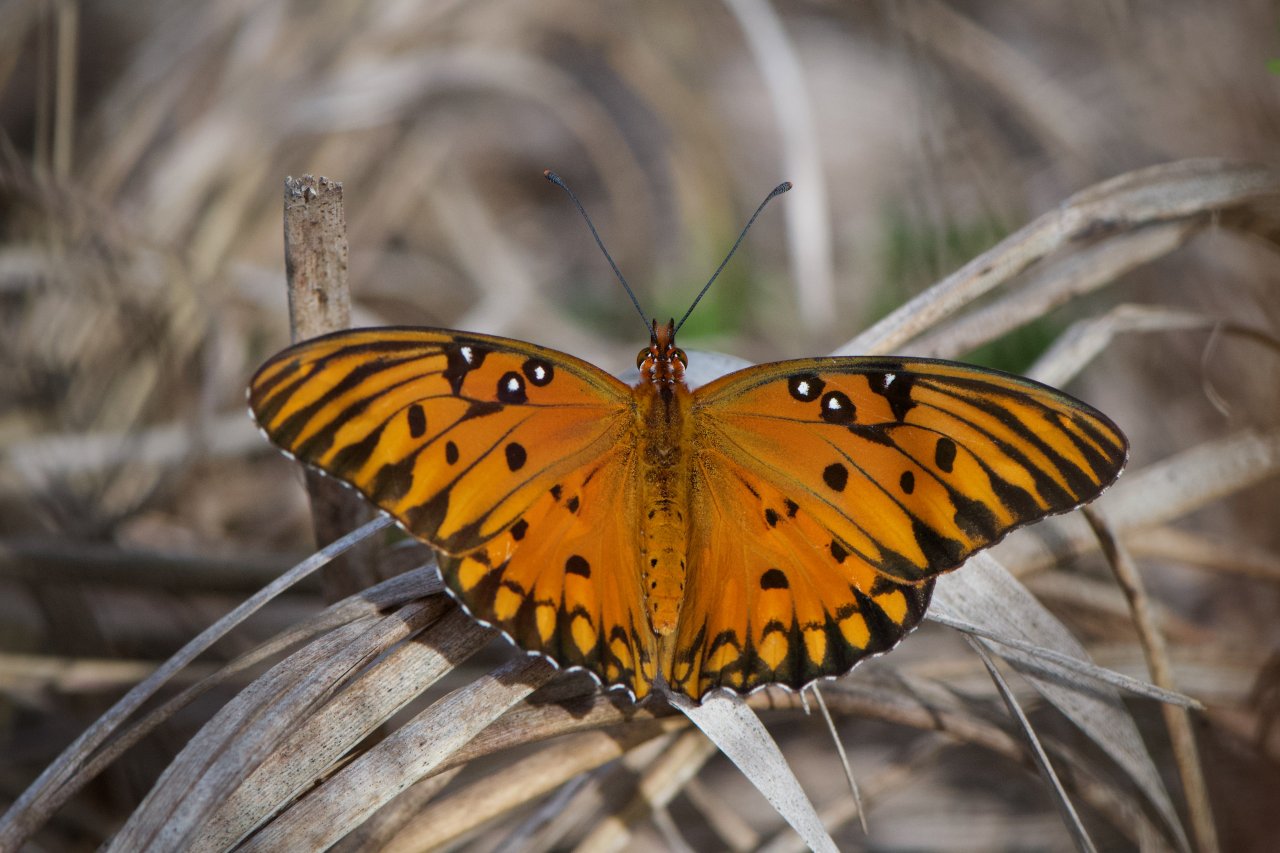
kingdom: Animalia
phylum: Arthropoda
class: Insecta
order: Lepidoptera
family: Nymphalidae
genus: Dione
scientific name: Dione vanillae
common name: Gulf Fritillary
